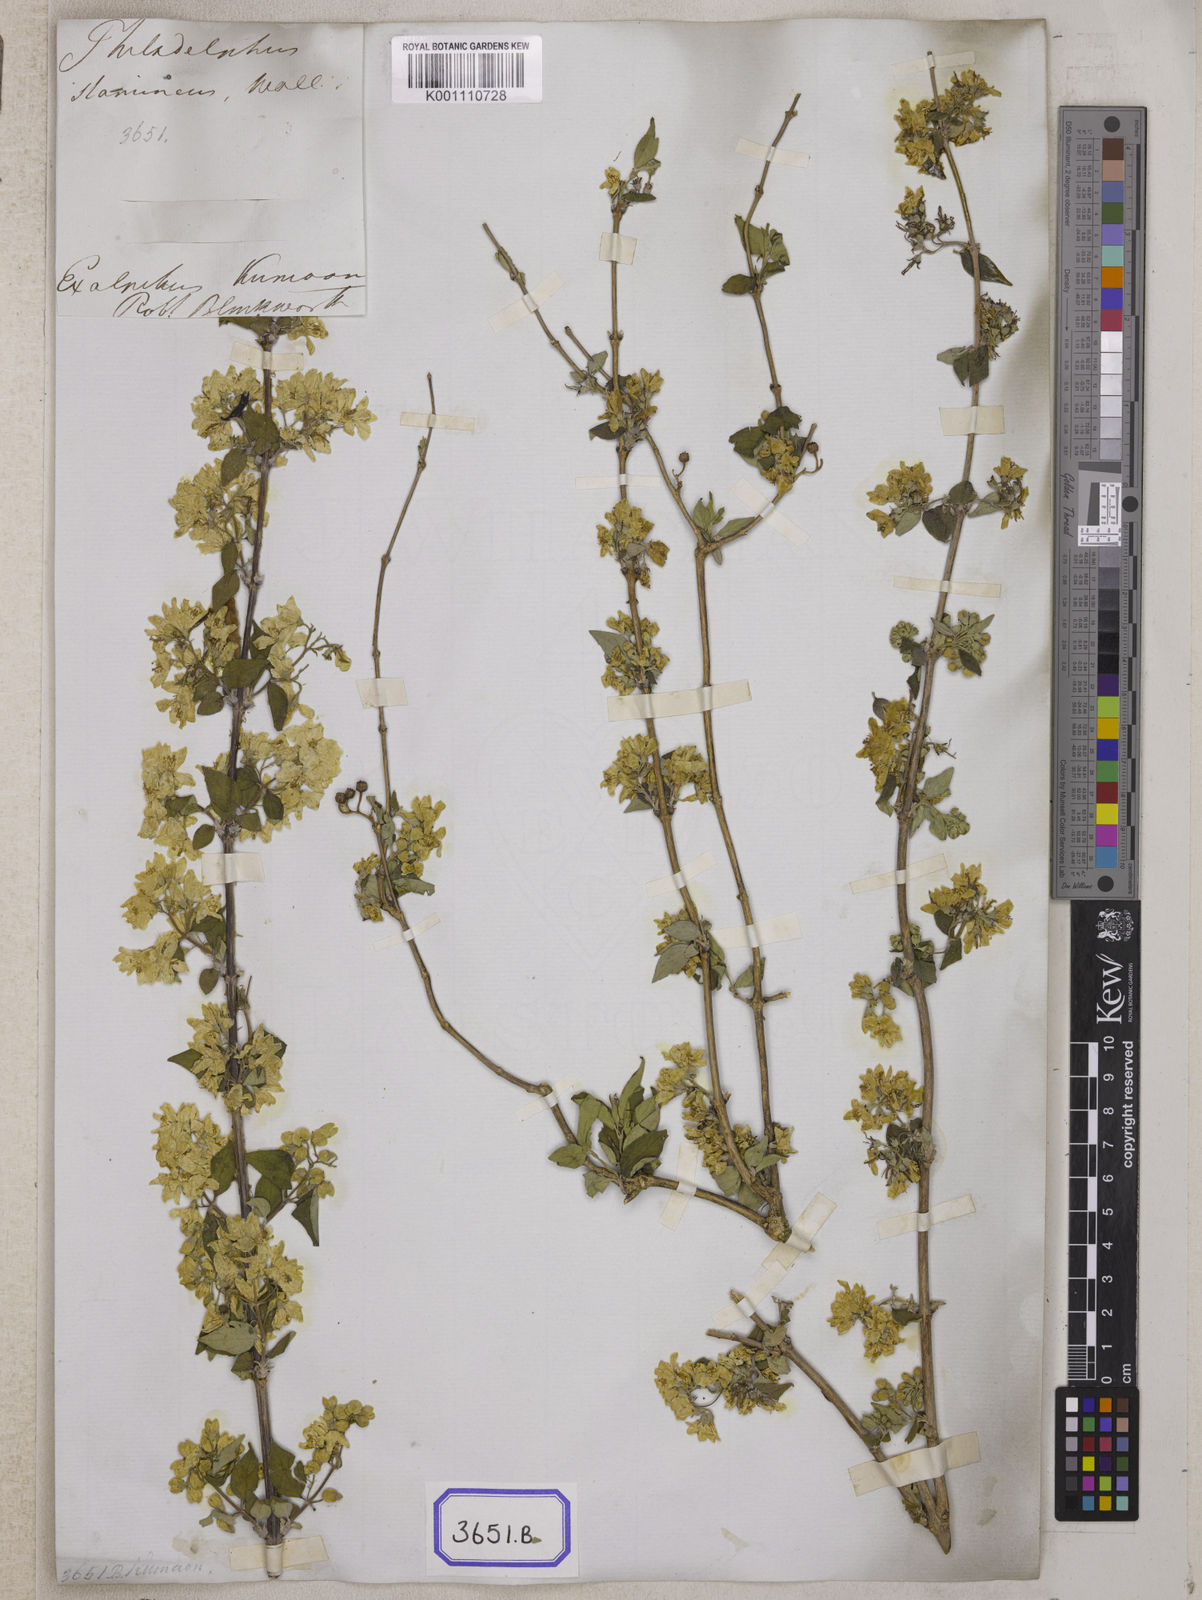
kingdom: Plantae
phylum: Tracheophyta
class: Magnoliopsida
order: Cornales
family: Hydrangeaceae
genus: Deutzia
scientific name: Deutzia
